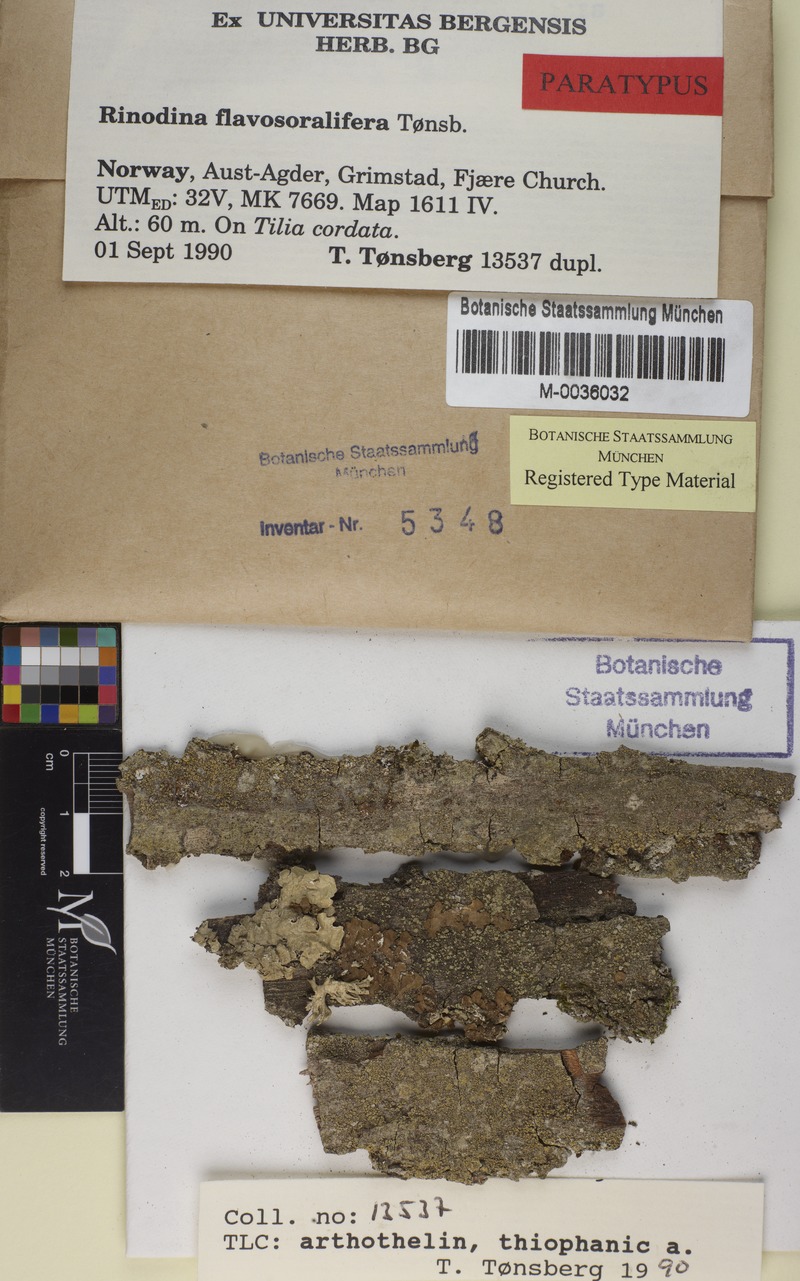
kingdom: Fungi
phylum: Ascomycota
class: Lecanoromycetes
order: Caliciales
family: Physciaceae
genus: Rinodina
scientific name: Rinodina flavosoralifera
